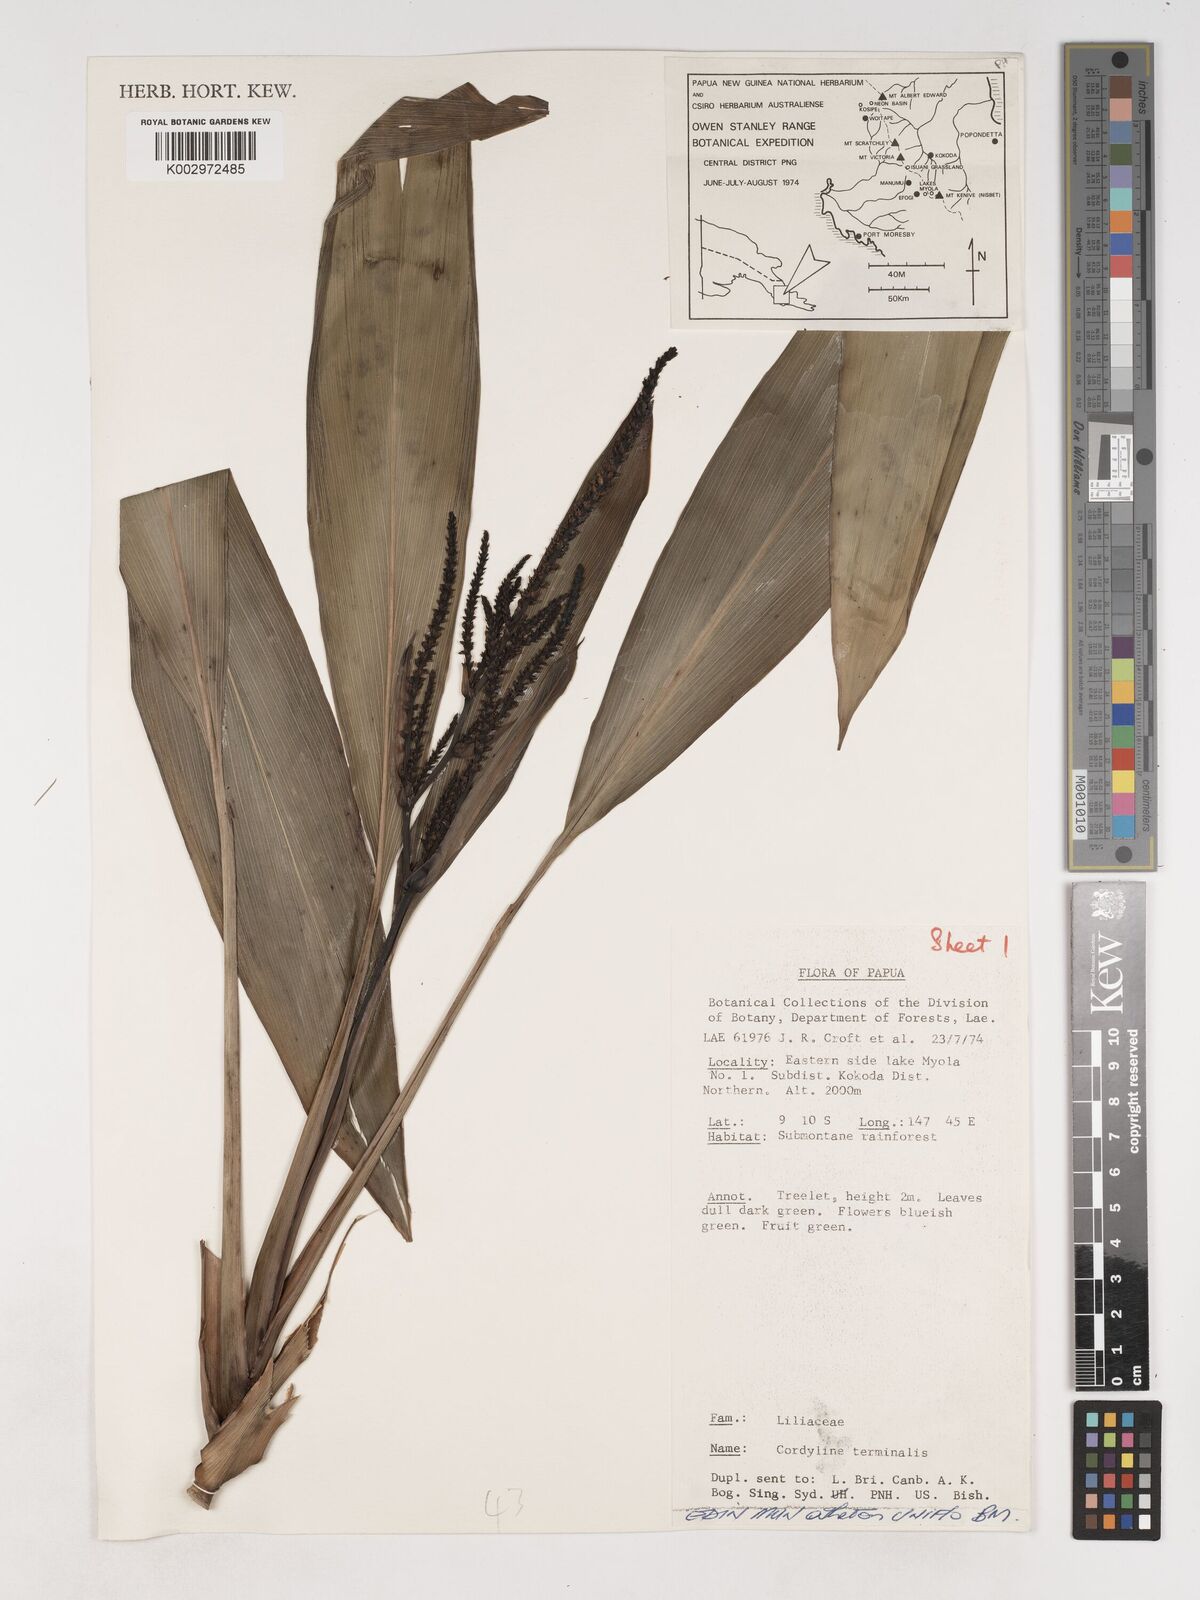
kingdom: Plantae
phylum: Tracheophyta
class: Liliopsida
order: Asparagales
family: Asparagaceae
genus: Cordyline
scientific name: Cordyline fruticosa
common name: Good-luck-plant
